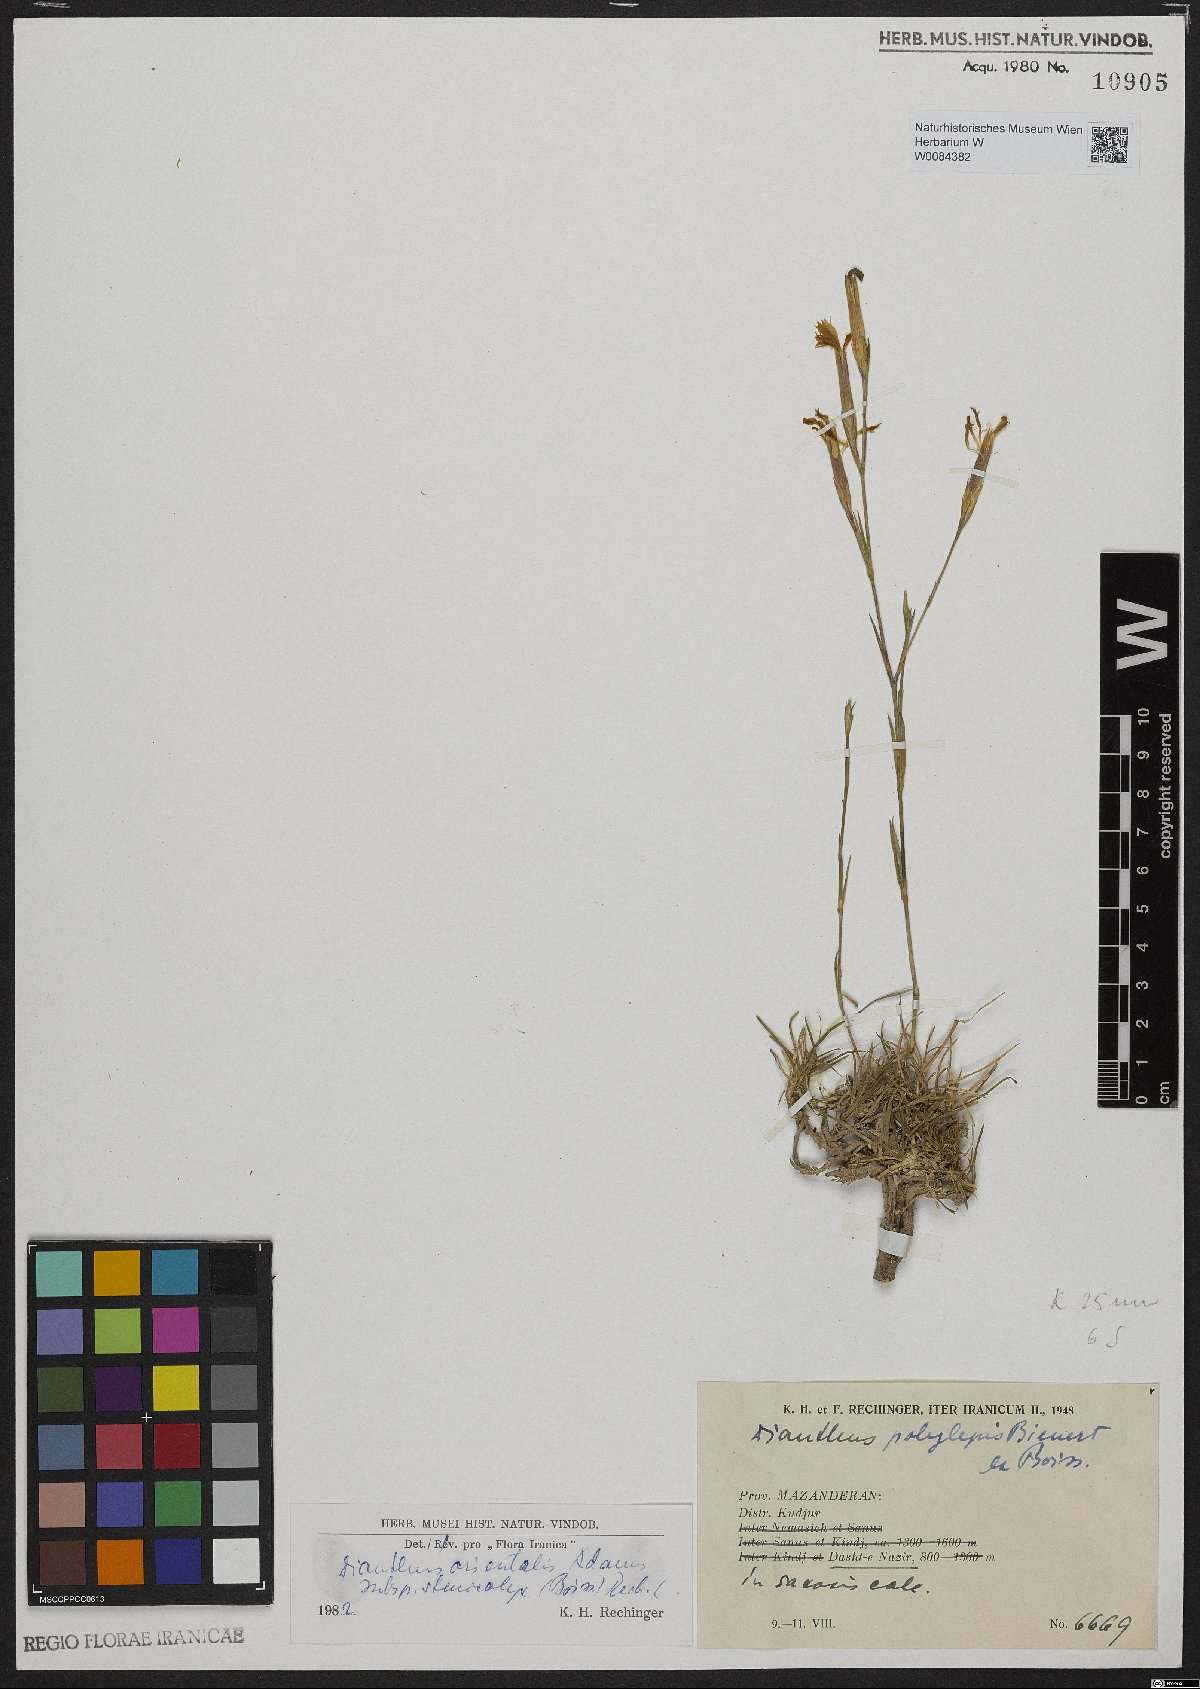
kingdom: Plantae
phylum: Tracheophyta
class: Magnoliopsida
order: Caryophyllales
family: Caryophyllaceae
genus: Dianthus
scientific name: Dianthus orientalis
